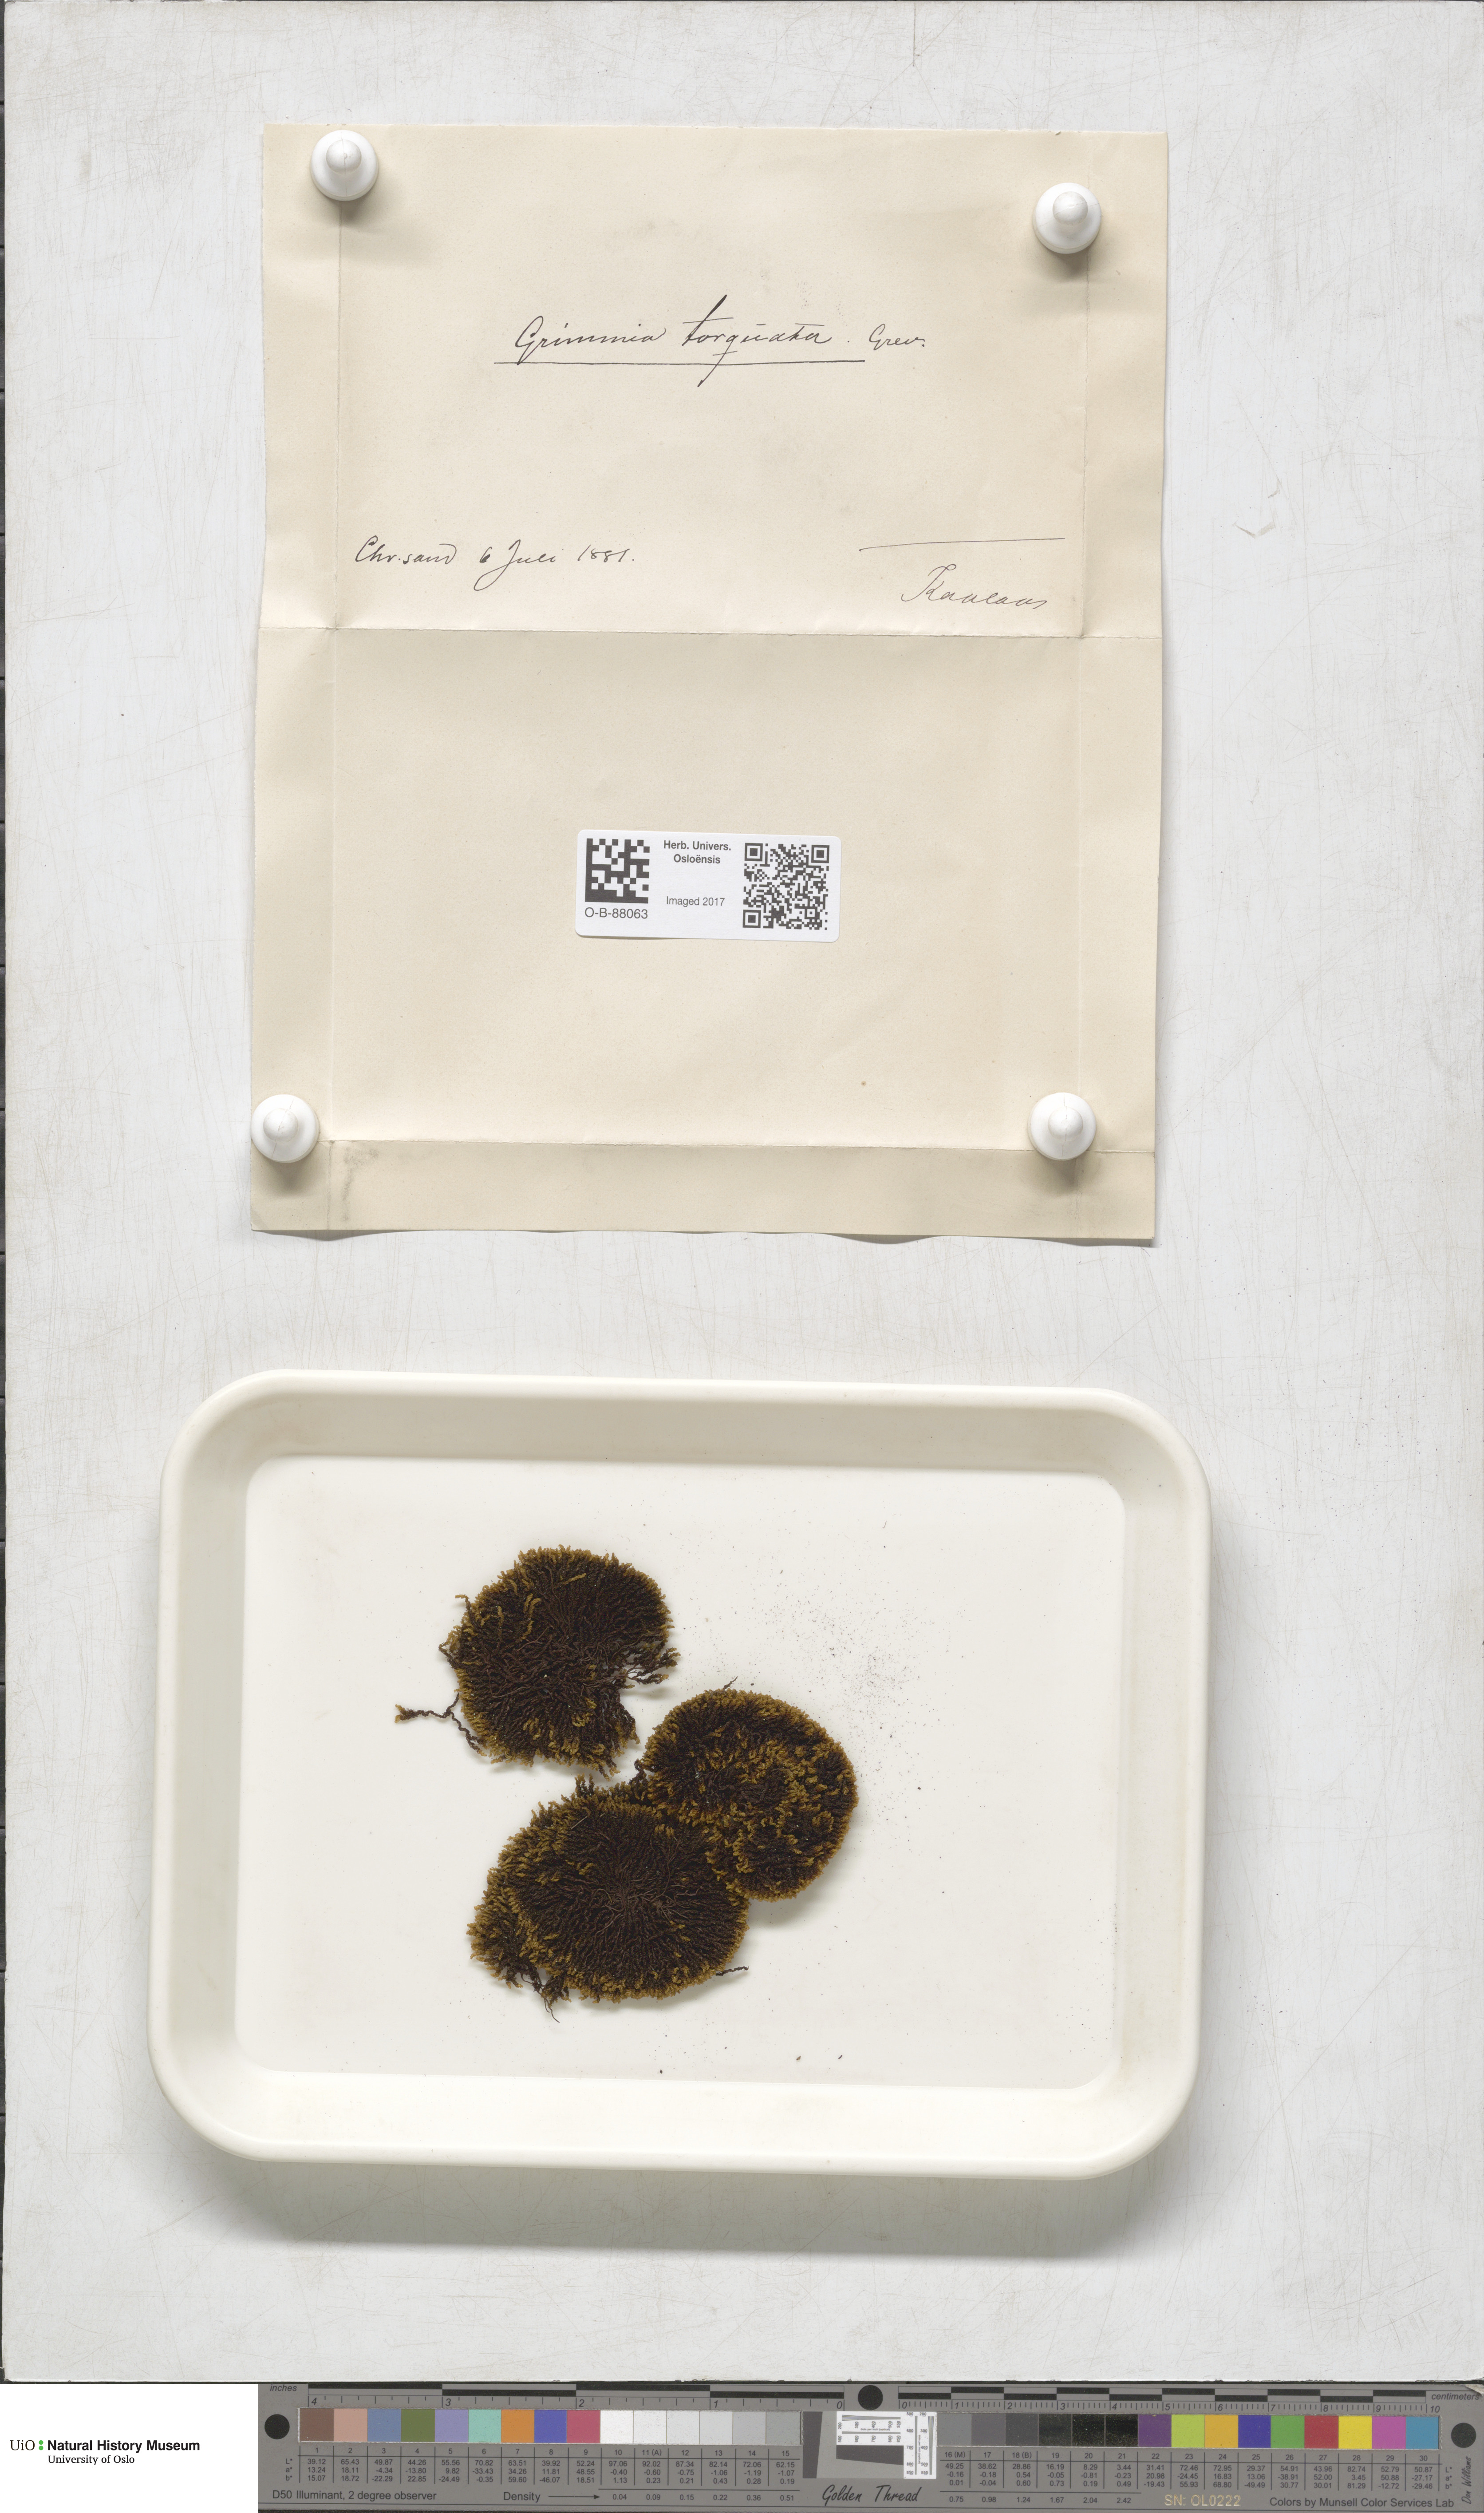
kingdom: Plantae
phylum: Bryophyta
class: Bryopsida
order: Grimmiales
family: Grimmiaceae
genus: Grimmia
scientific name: Grimmia torquata
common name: Twisted grimmia
